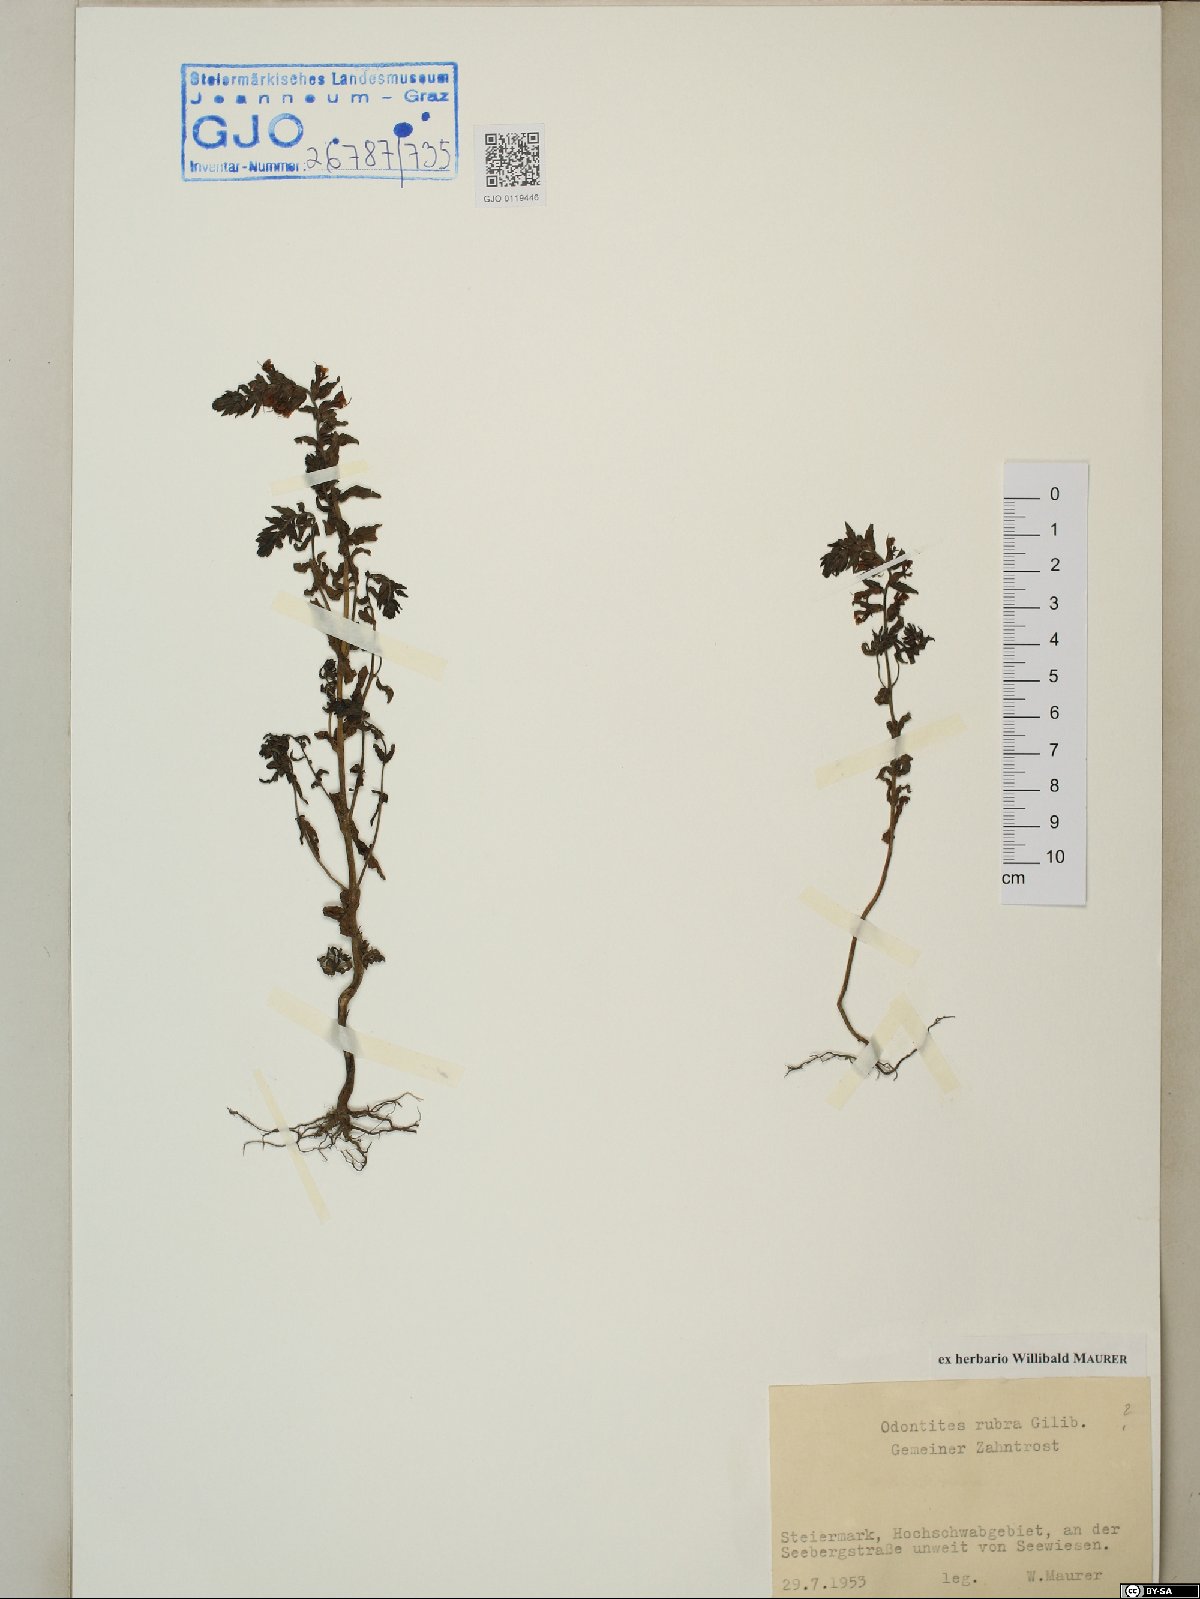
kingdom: Plantae
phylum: Tracheophyta
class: Magnoliopsida
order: Lamiales
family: Orobanchaceae
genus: Odontites
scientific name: Odontites vulgaris
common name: Broomrape
